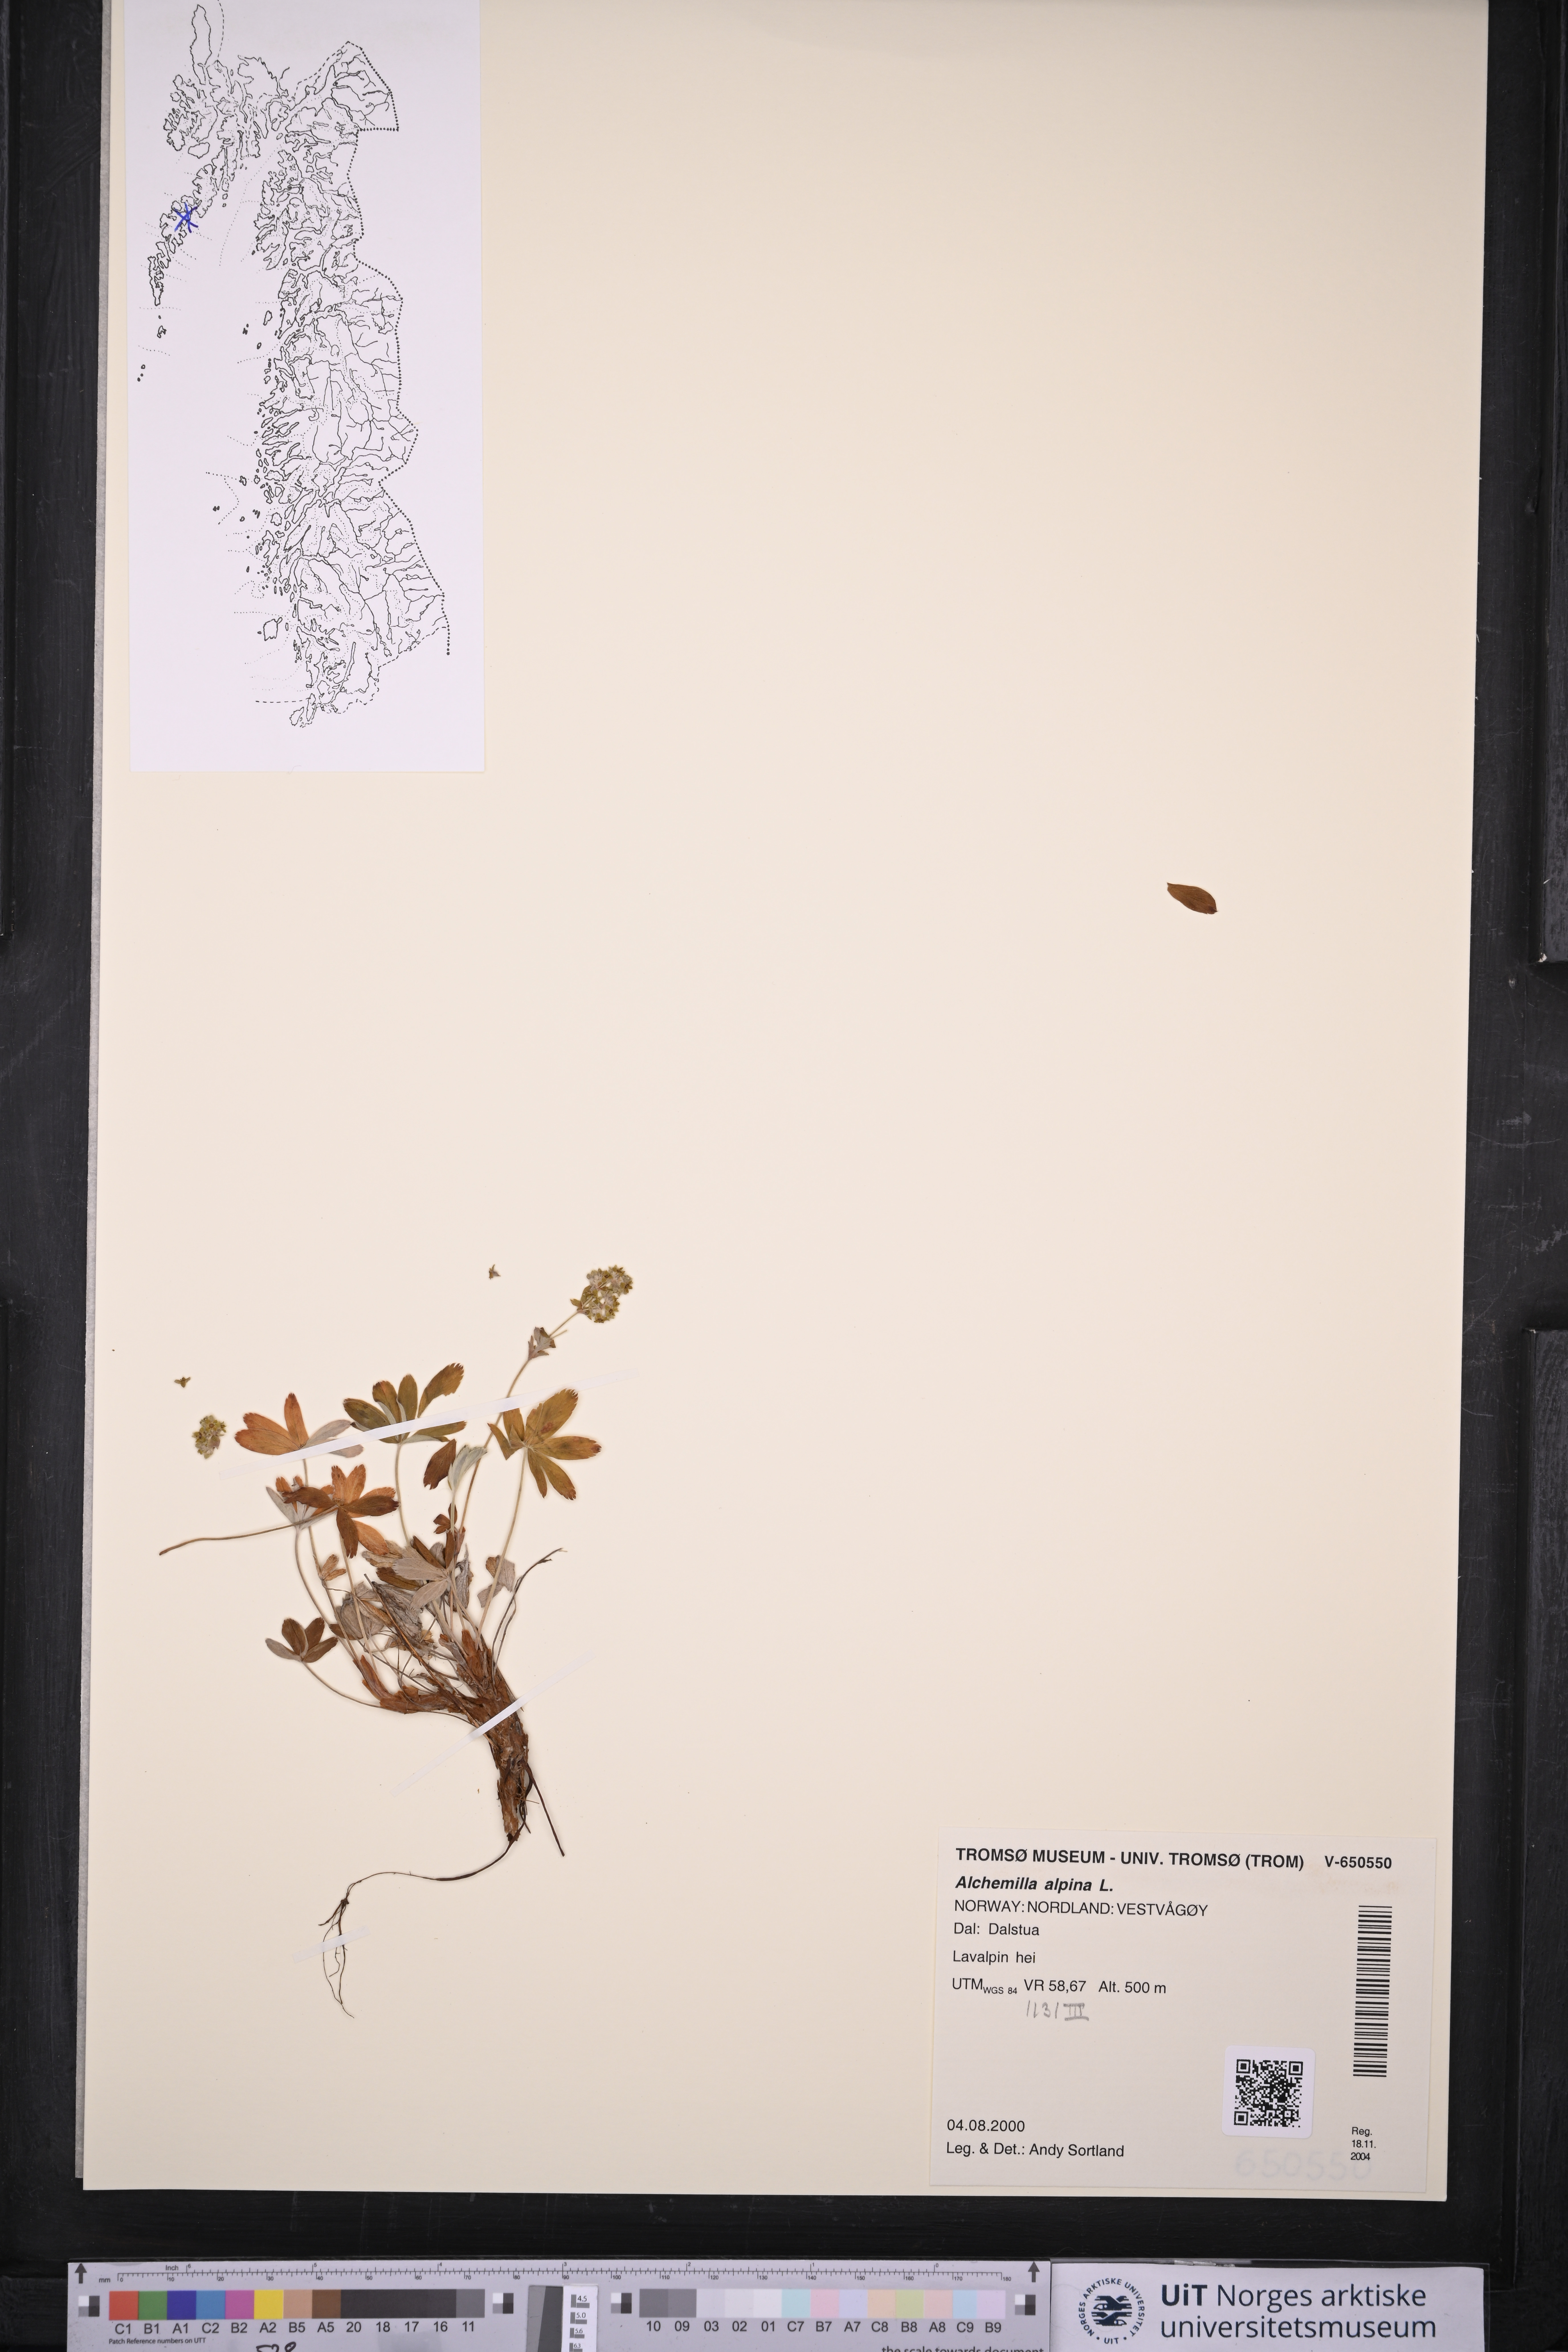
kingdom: Plantae
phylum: Tracheophyta
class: Magnoliopsida
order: Rosales
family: Rosaceae
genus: Alchemilla
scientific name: Alchemilla alpina
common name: Alpine lady's-mantle
